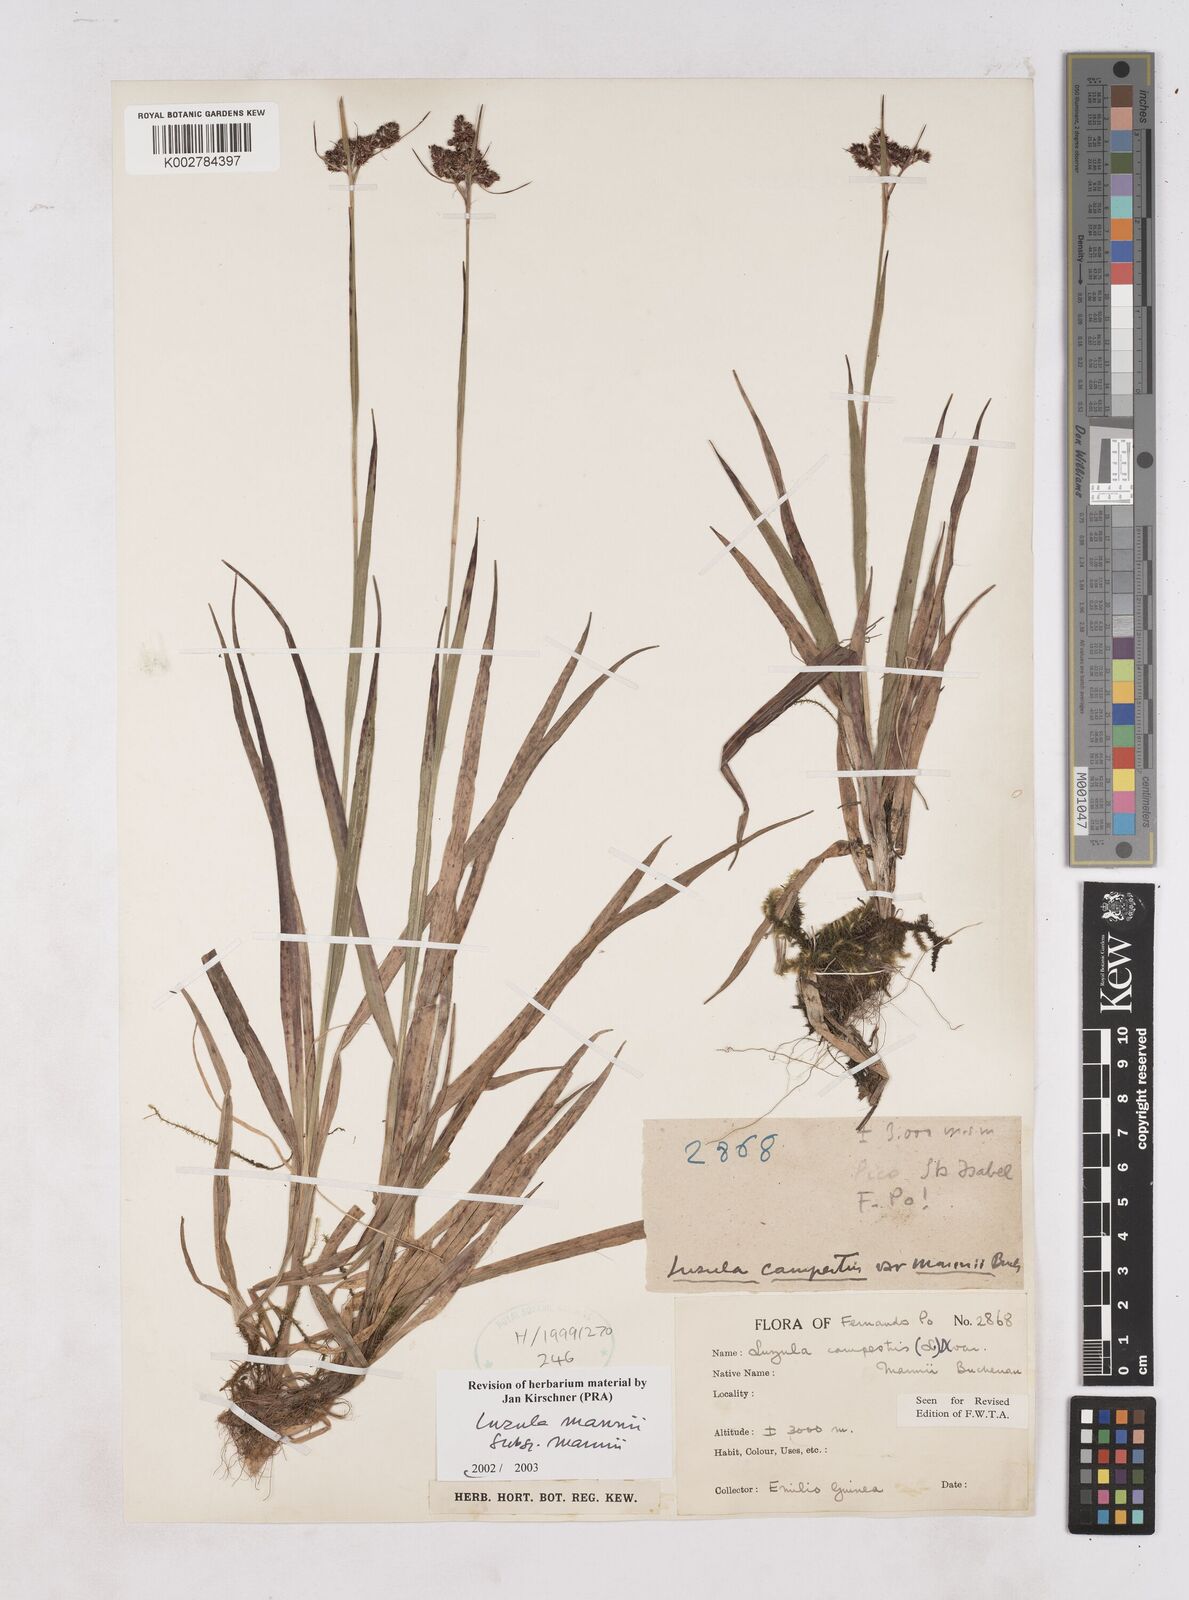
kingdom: Plantae
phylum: Tracheophyta
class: Liliopsida
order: Poales
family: Juncaceae
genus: Luzula
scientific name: Luzula campestris
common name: Field wood-rush
